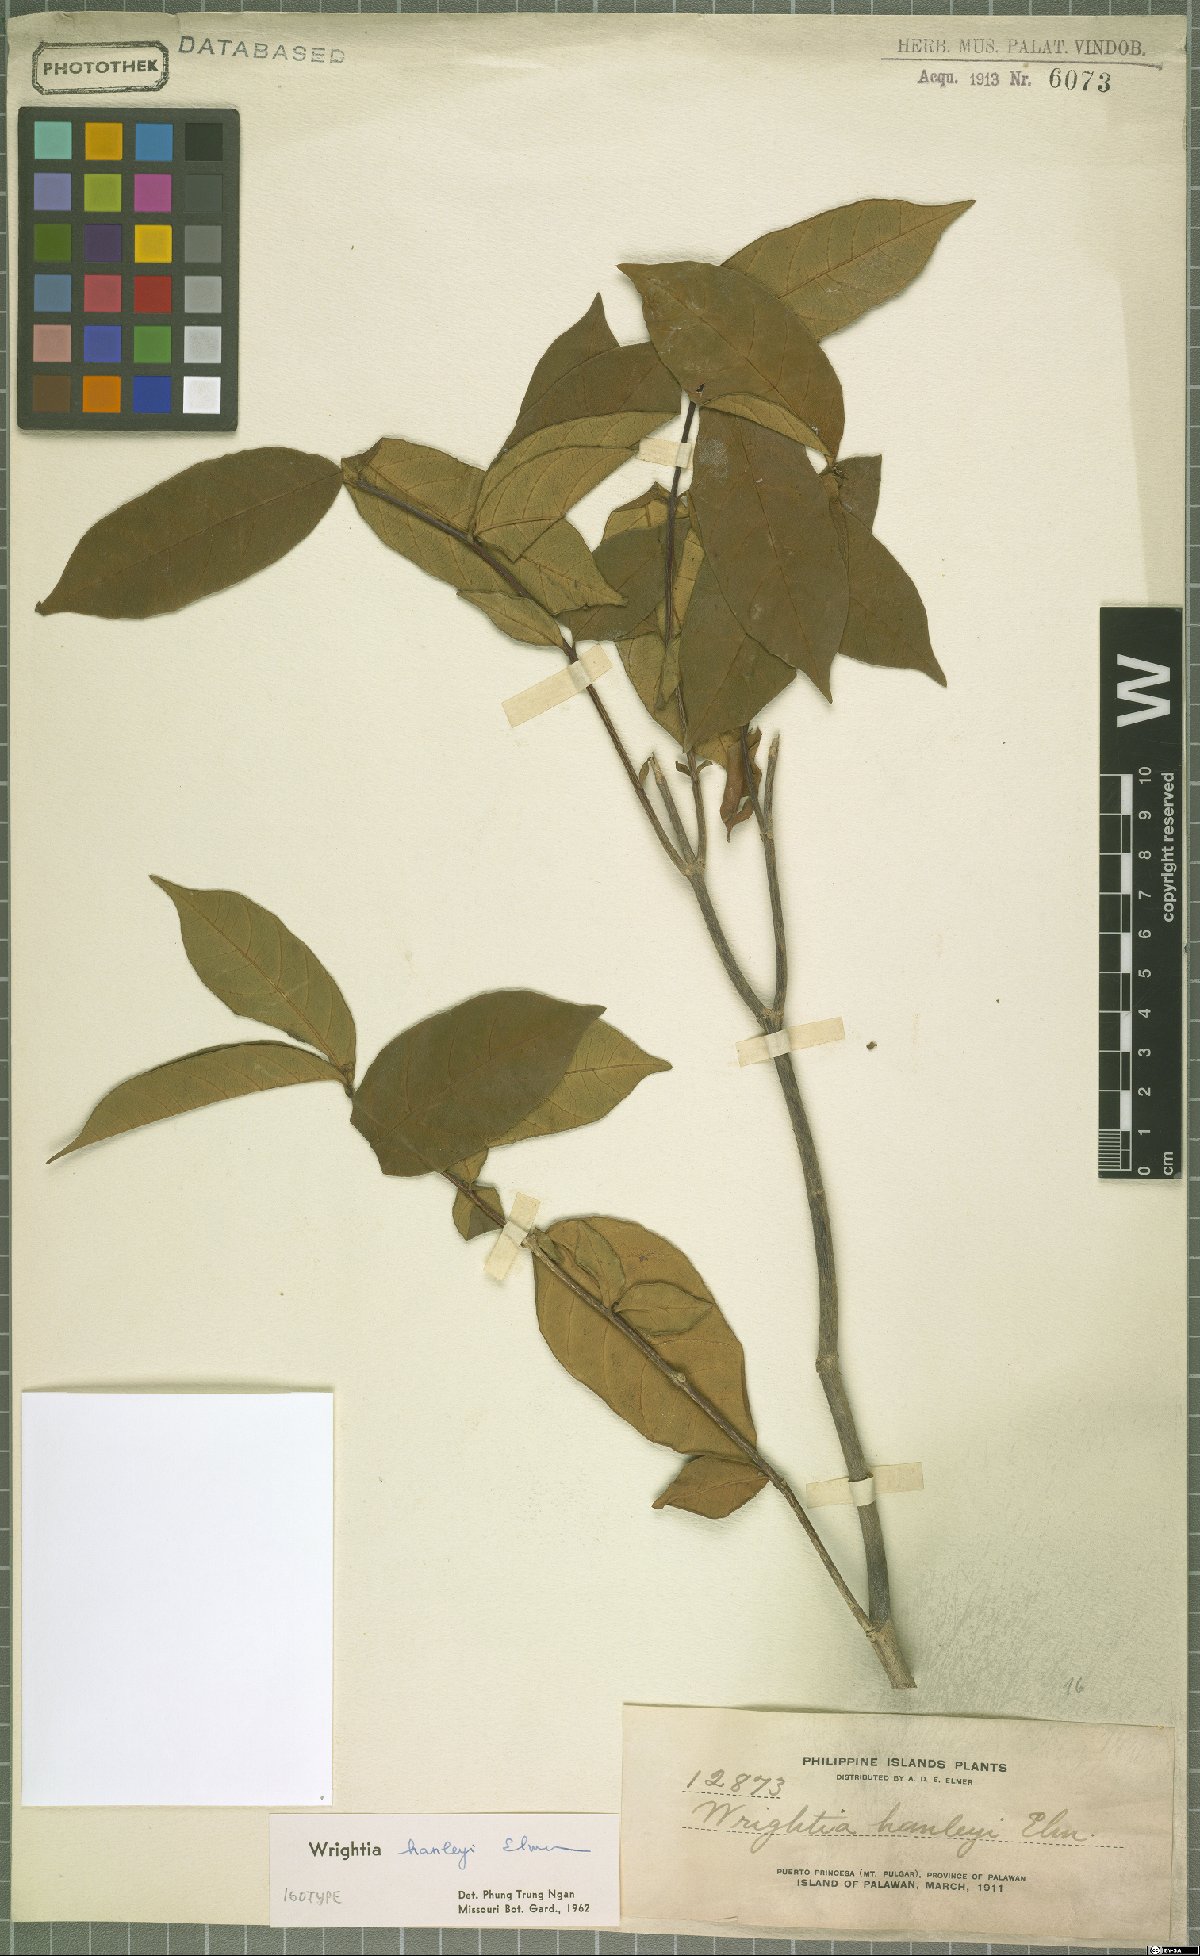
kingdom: Plantae
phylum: Tracheophyta
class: Magnoliopsida
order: Gentianales
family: Apocynaceae
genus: Wrightia
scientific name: Wrightia hanleyi
